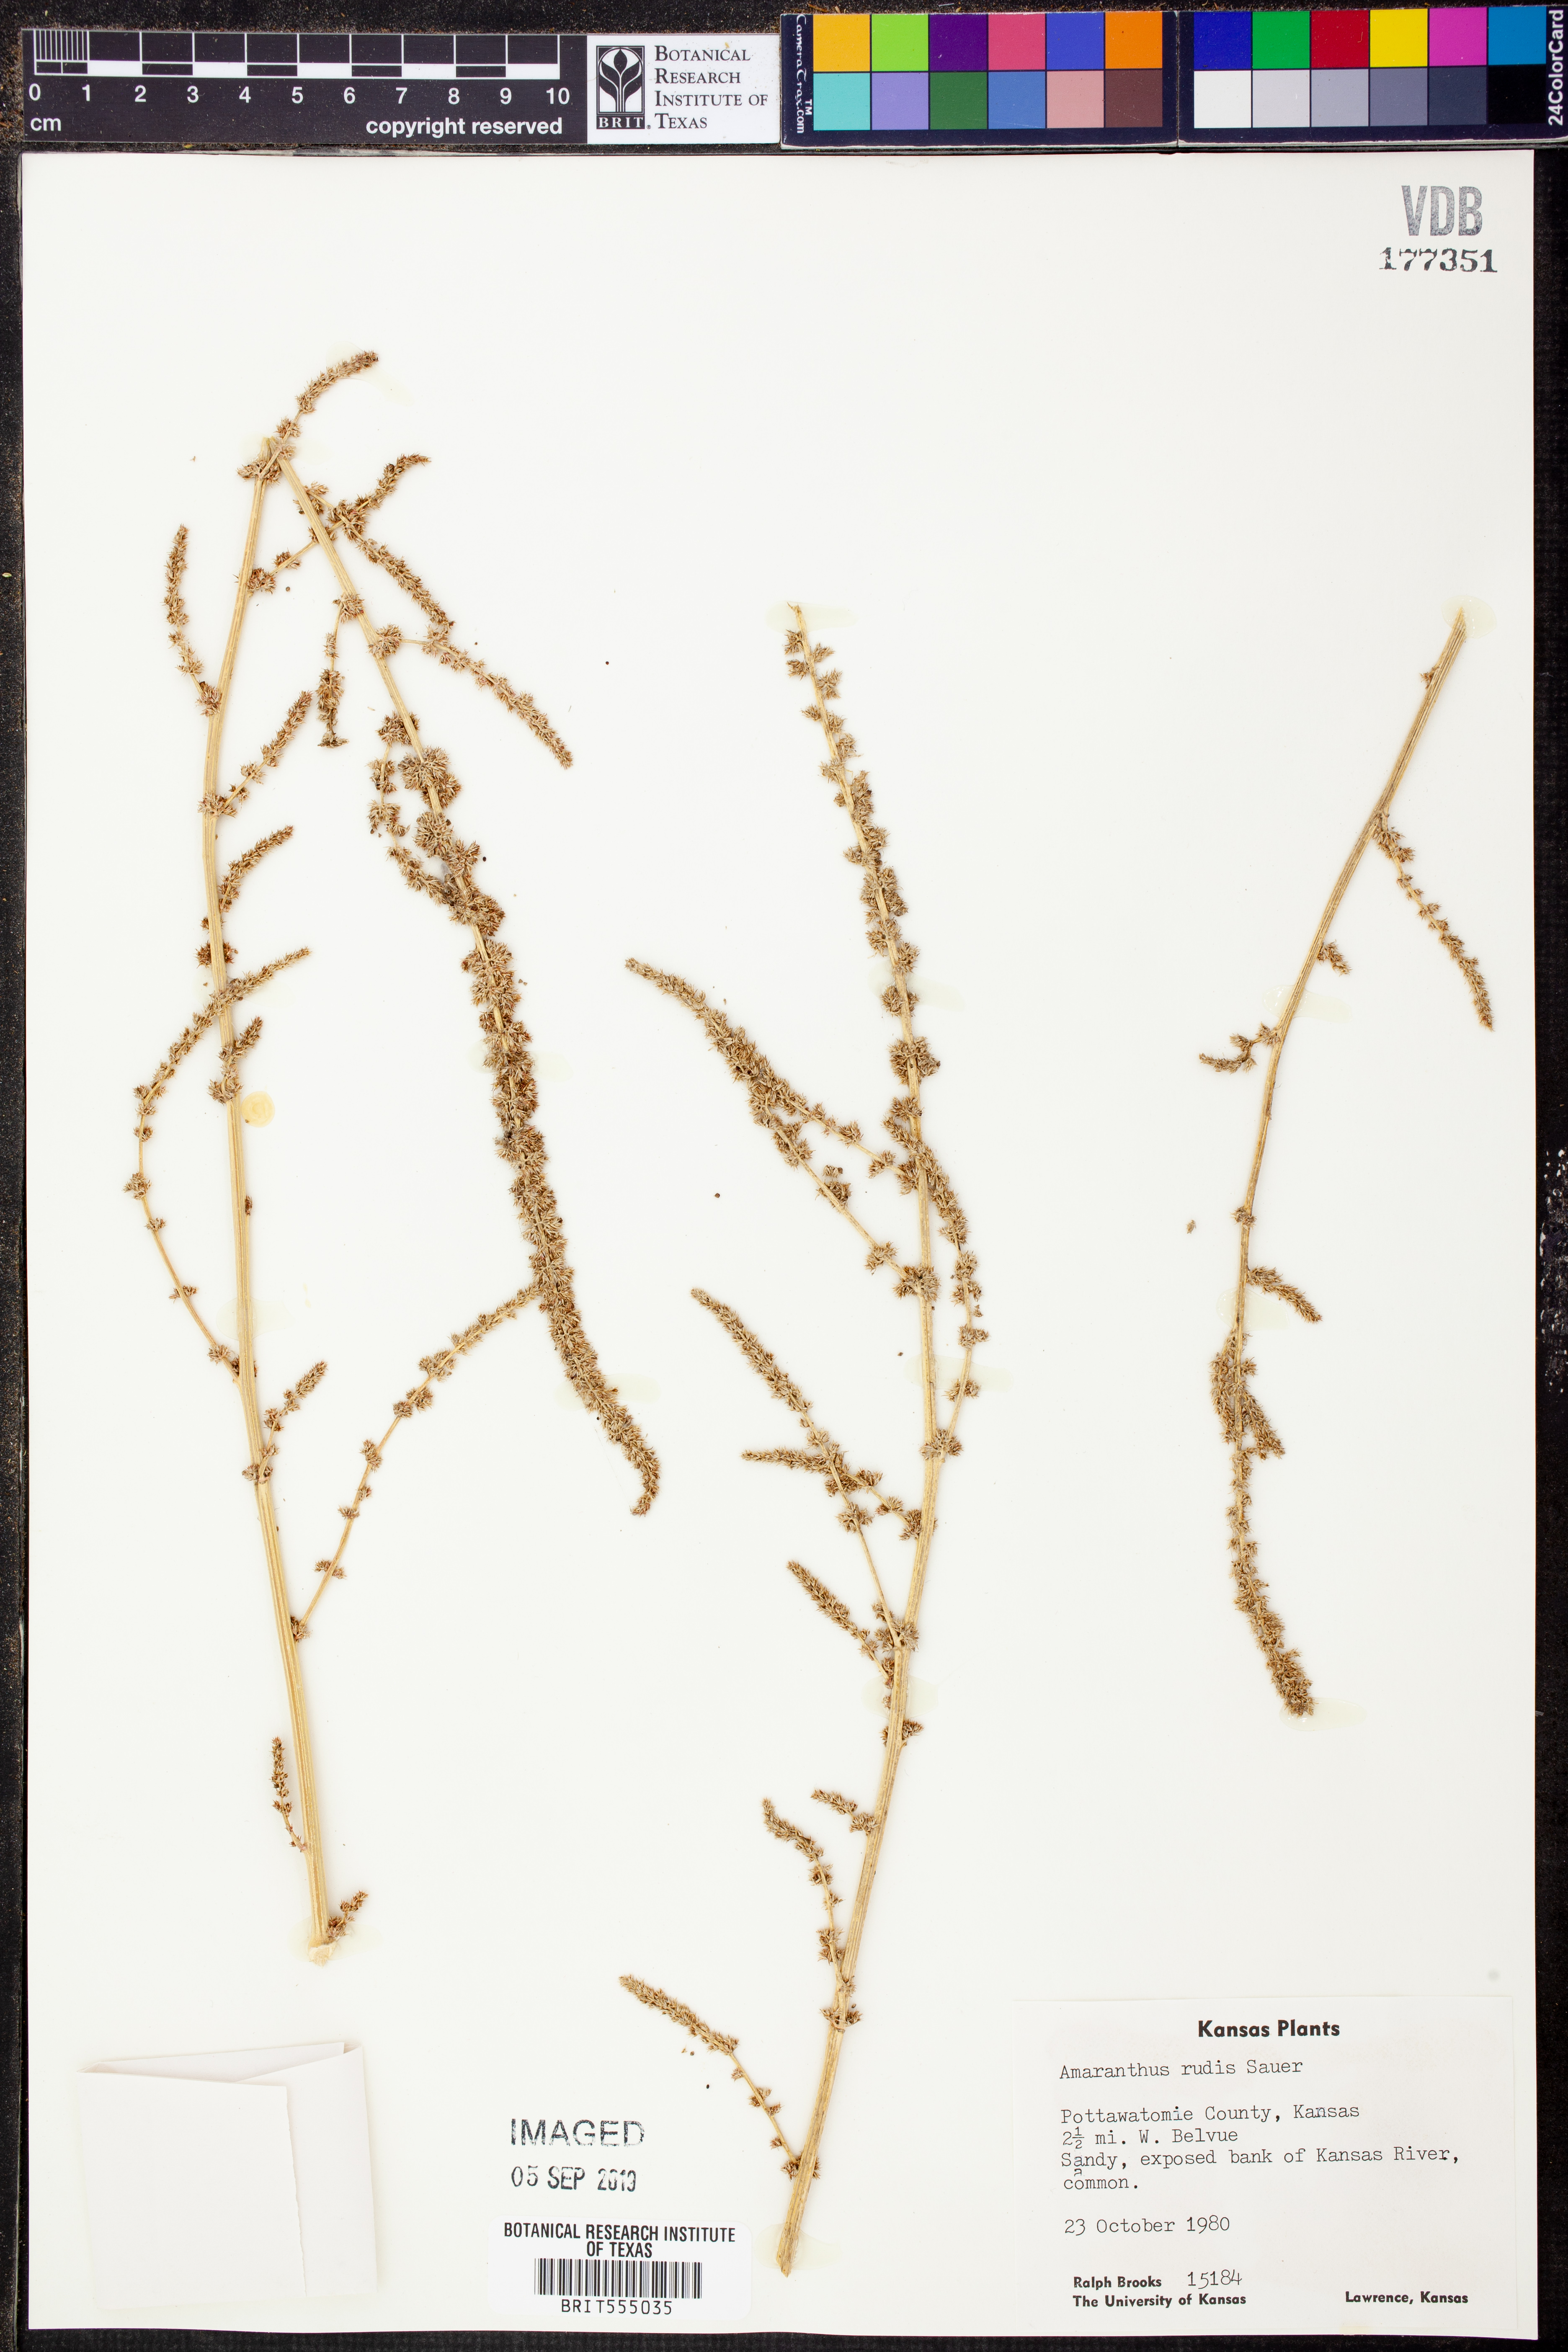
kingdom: Plantae
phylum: Tracheophyta
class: Magnoliopsida
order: Caryophyllales
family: Amaranthaceae
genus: Amaranthus
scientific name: Amaranthus tuberculatus
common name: Rough-fruit amaranth
